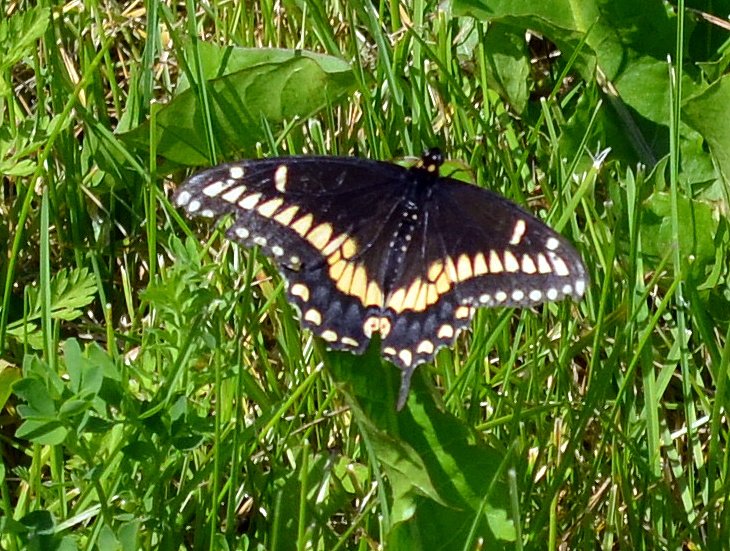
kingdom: Animalia
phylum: Arthropoda
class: Insecta
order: Lepidoptera
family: Papilionidae
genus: Papilio
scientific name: Papilio polyxenes
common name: Black Swallowtail
